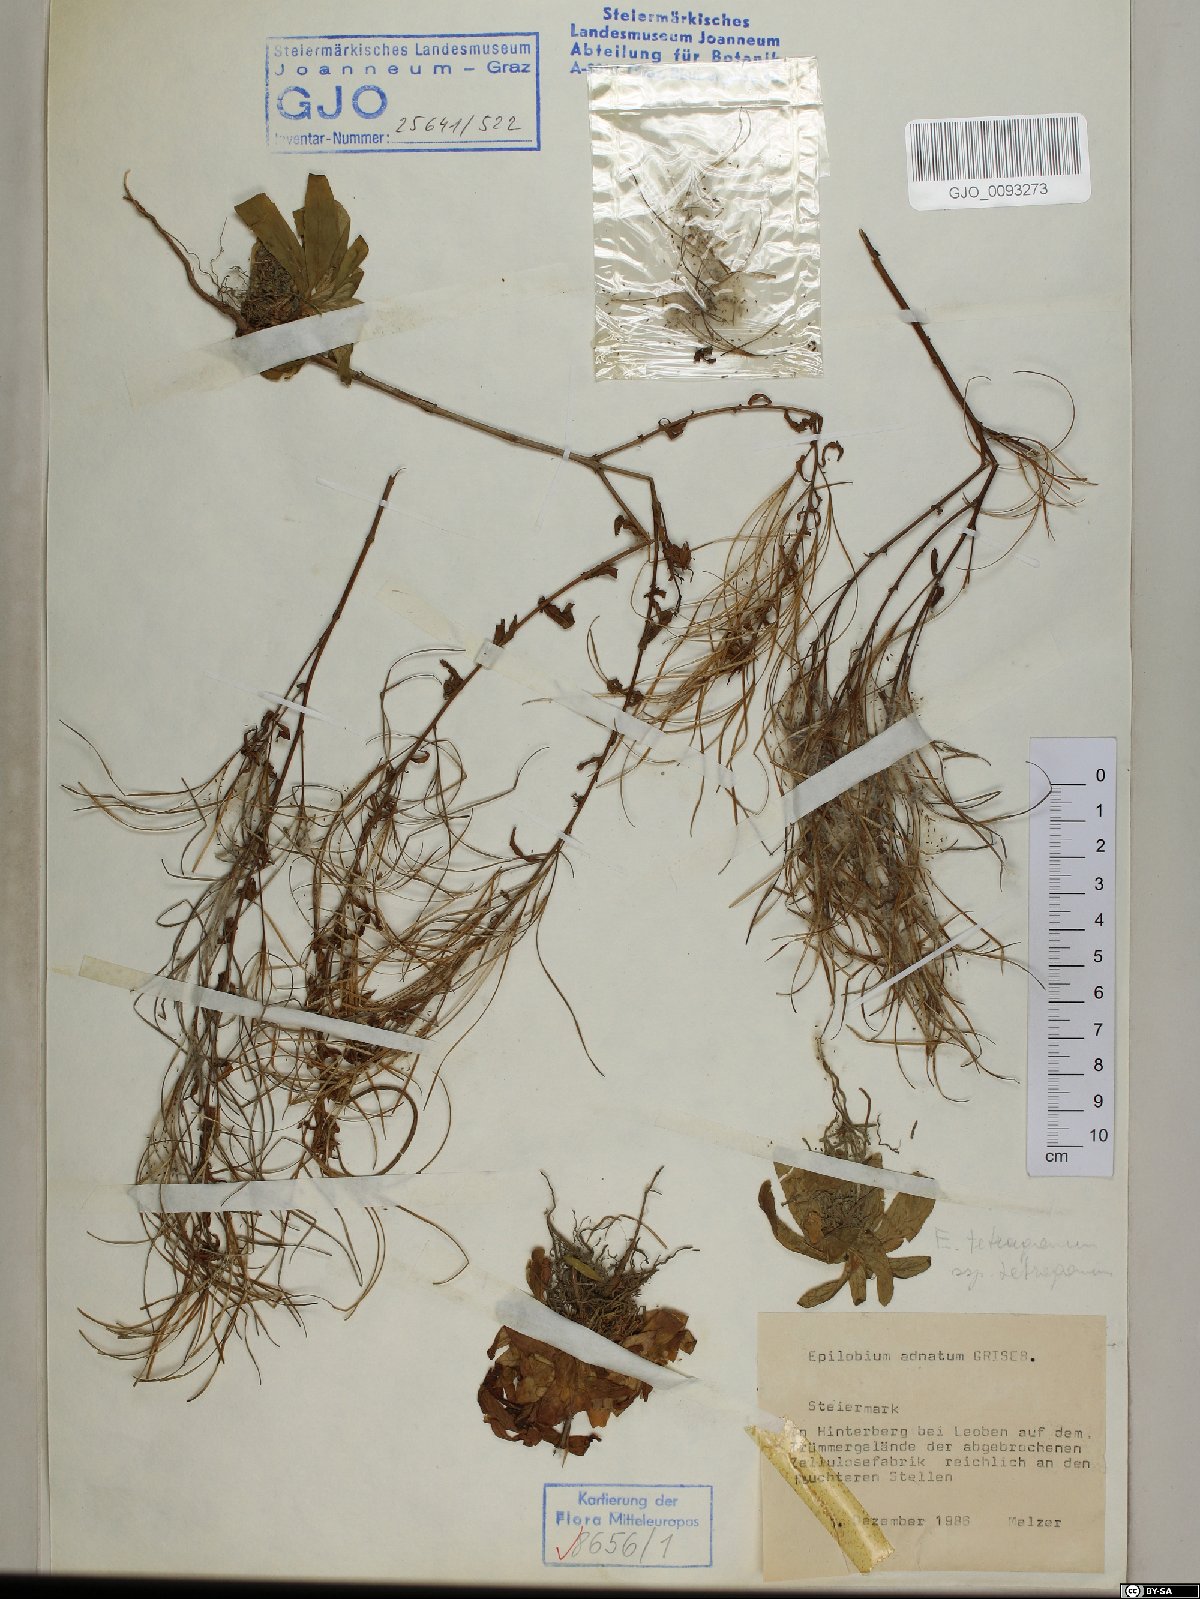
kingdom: Plantae
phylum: Tracheophyta
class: Magnoliopsida
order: Myrtales
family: Onagraceae
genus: Epilobium
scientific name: Epilobium tetragonum
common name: Square-stemmed willowherb
